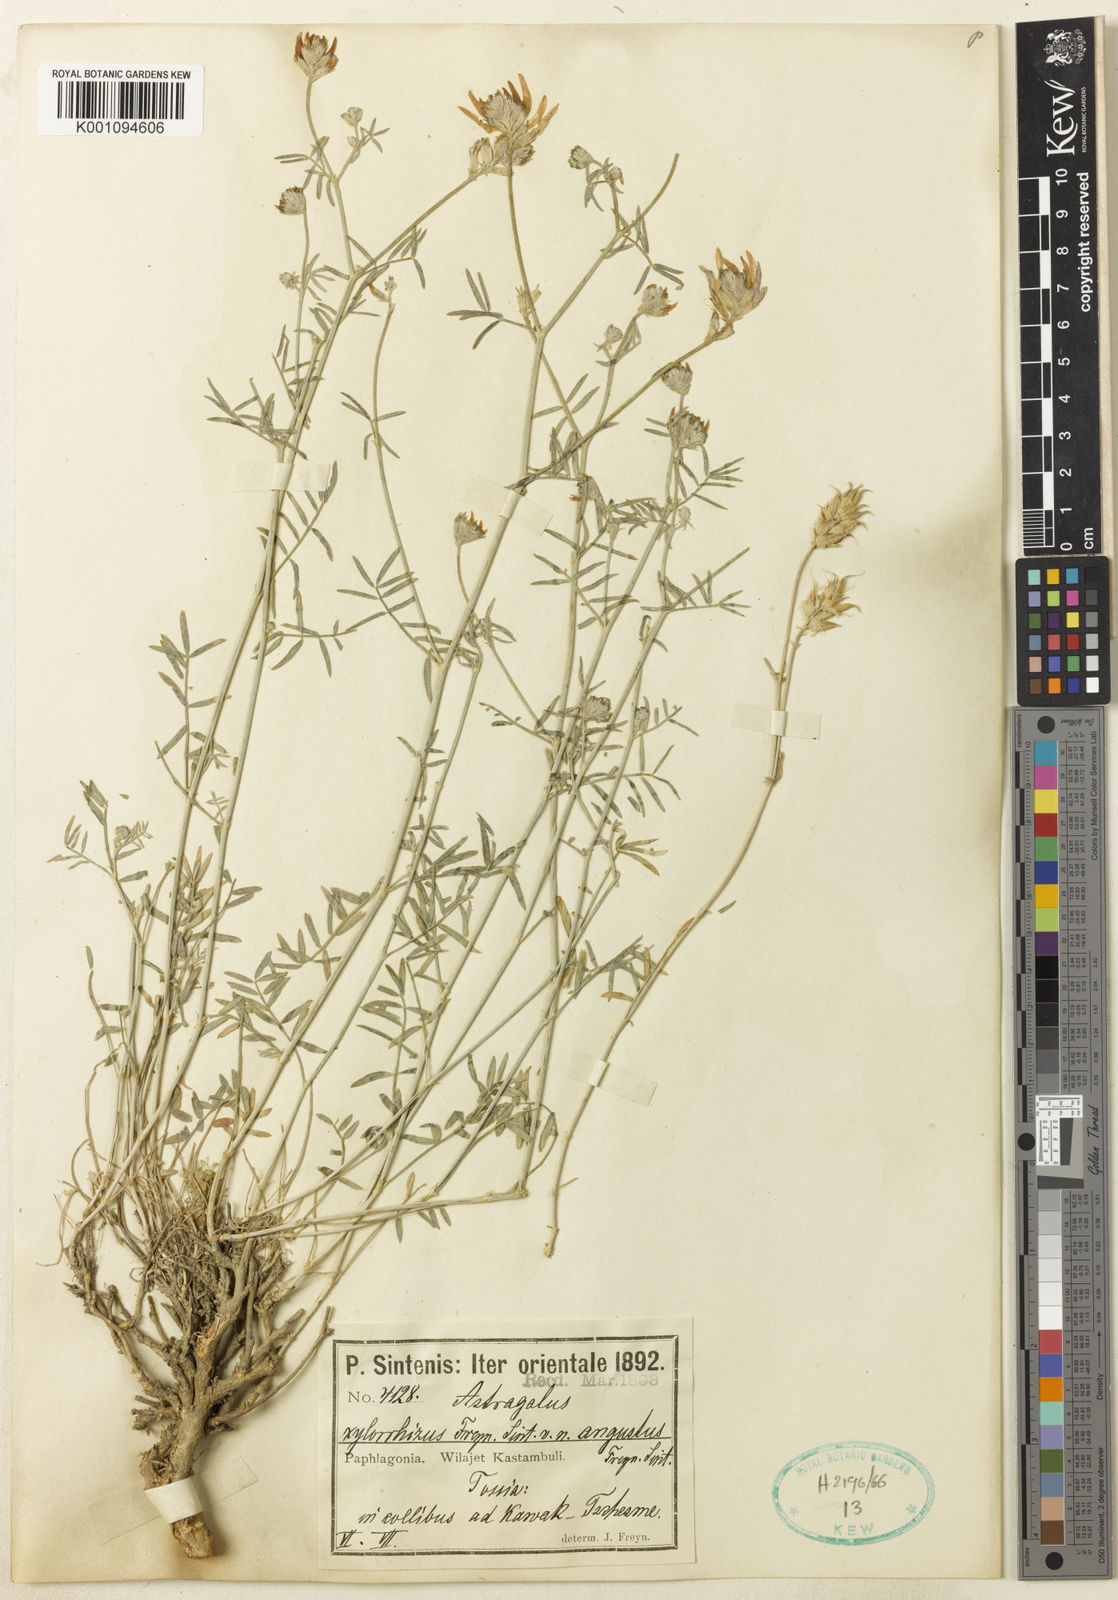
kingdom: Plantae
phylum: Tracheophyta
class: Magnoliopsida
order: Fabales
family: Fabaceae
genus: Astragalus
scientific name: Astragalus
